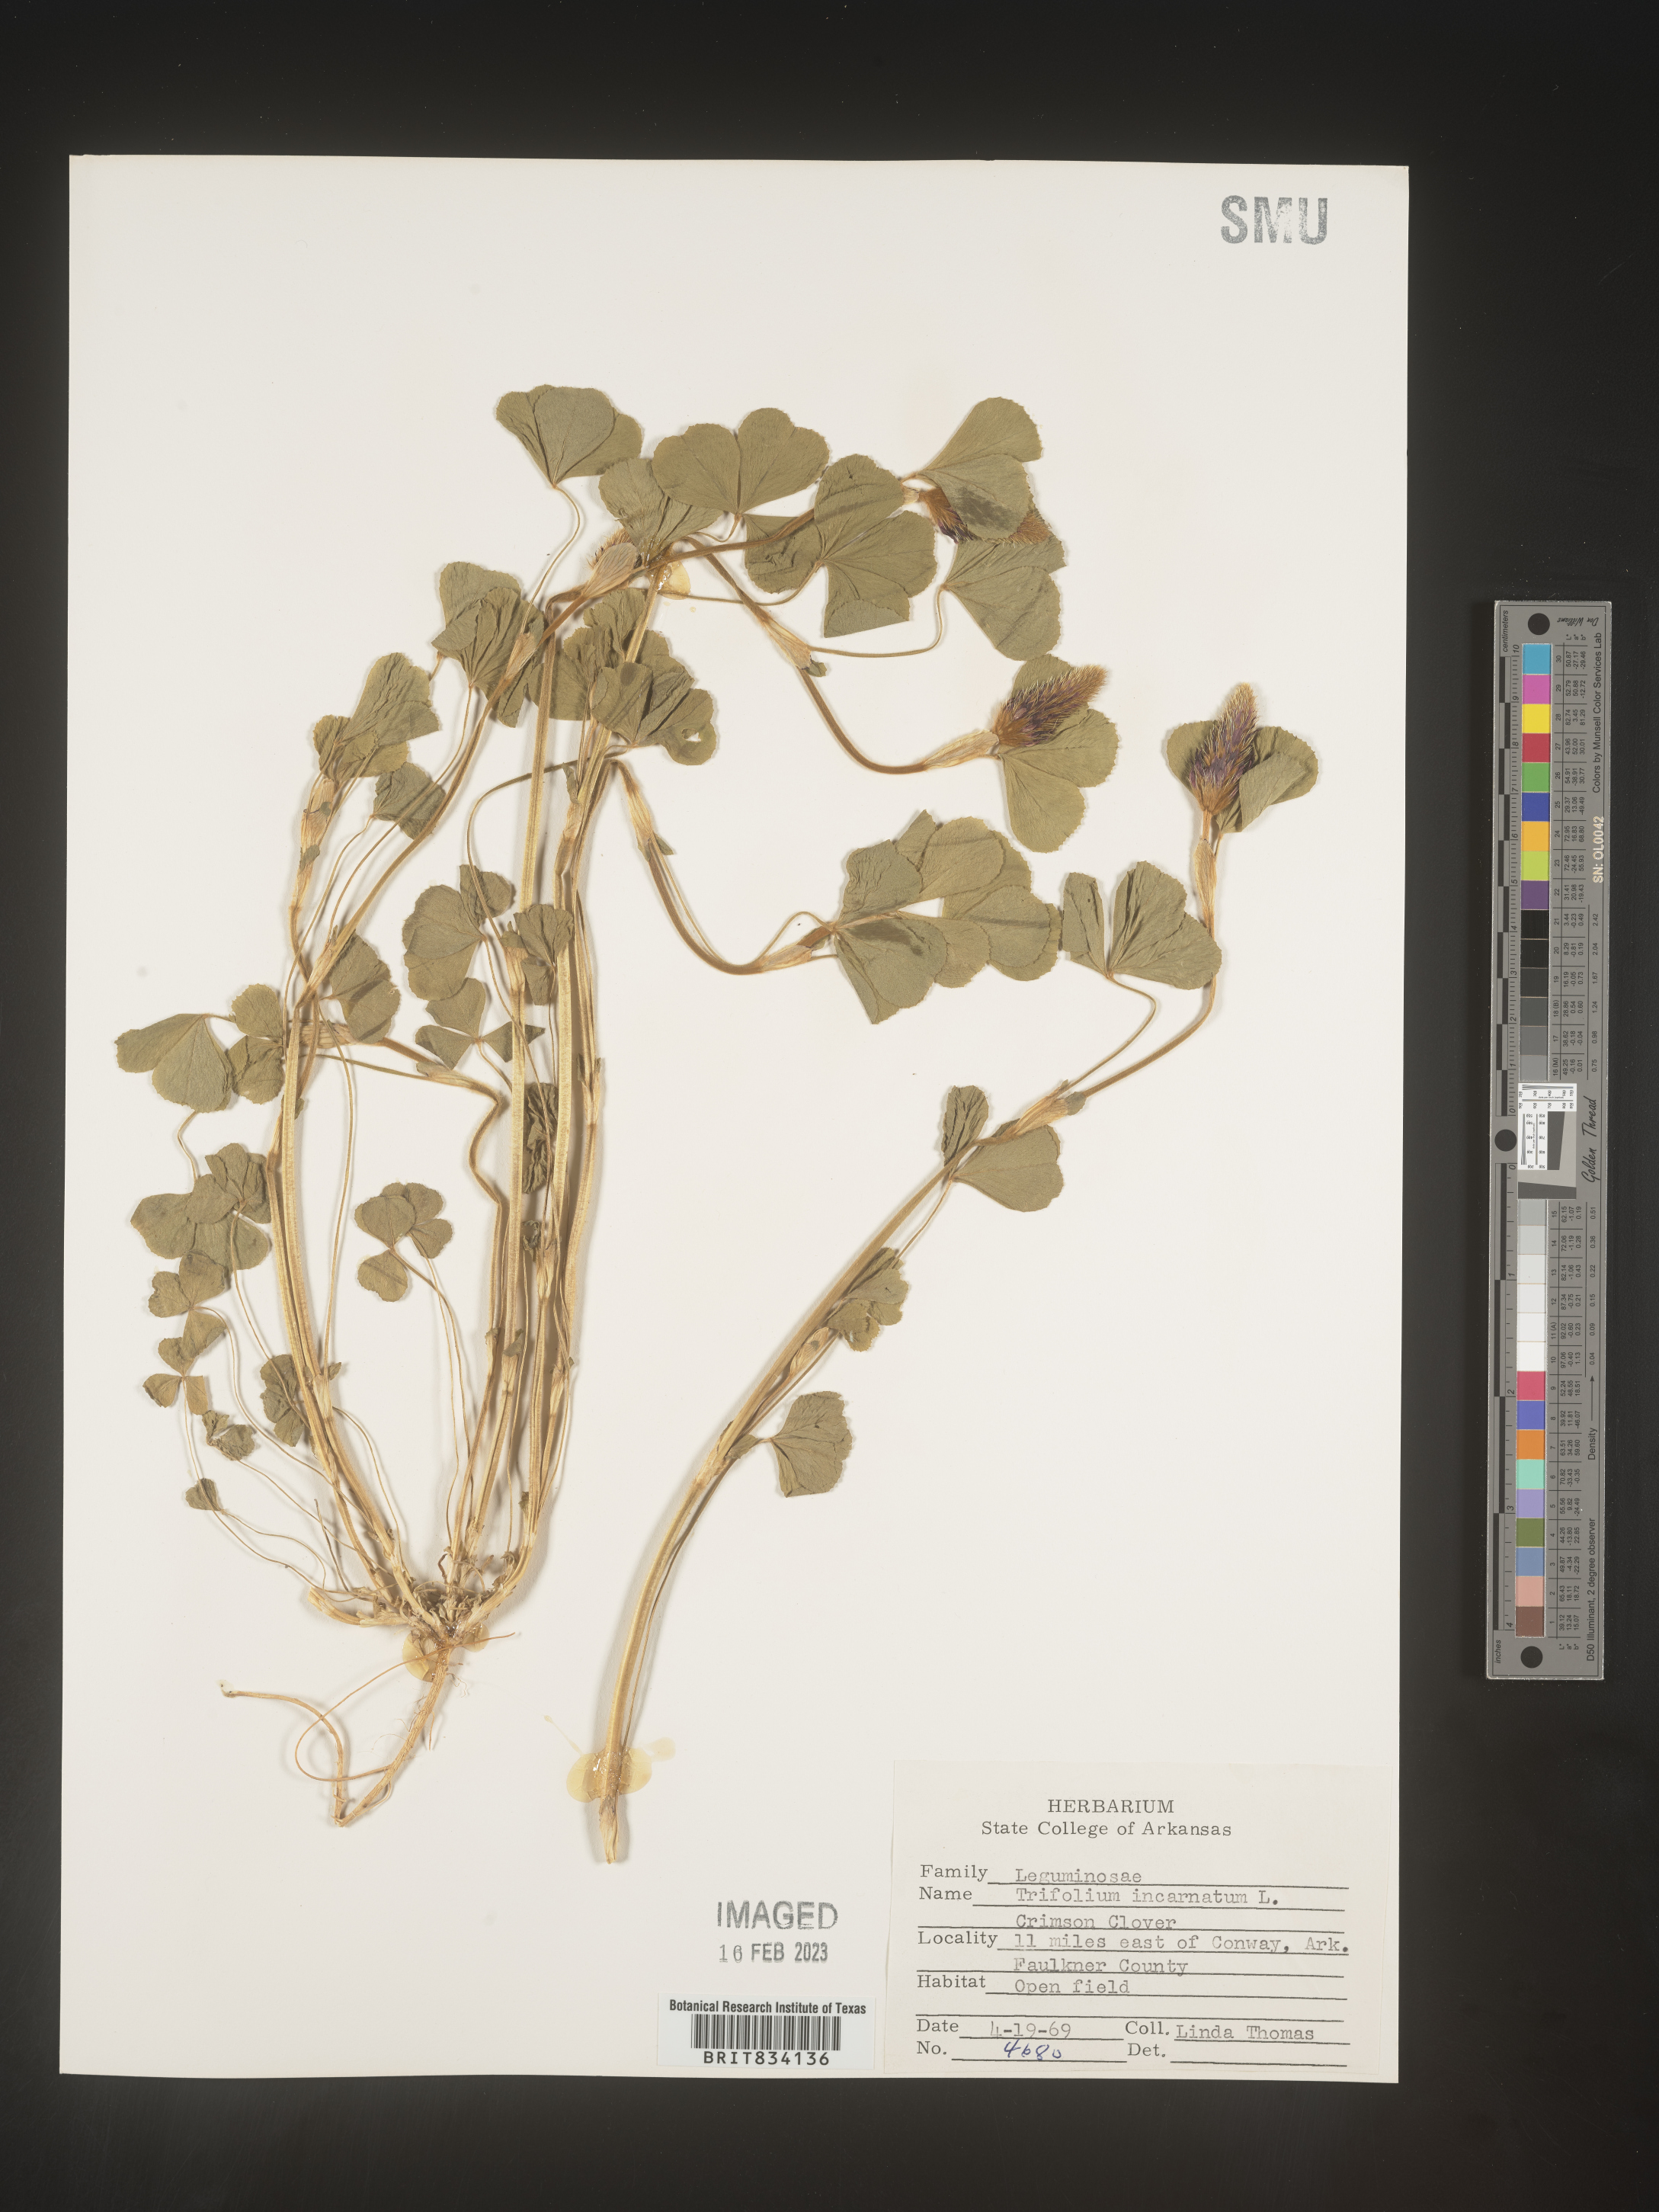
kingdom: Plantae
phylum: Tracheophyta
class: Magnoliopsida
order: Fabales
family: Fabaceae
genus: Trifolium
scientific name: Trifolium incarnatum
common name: Crimson clover
